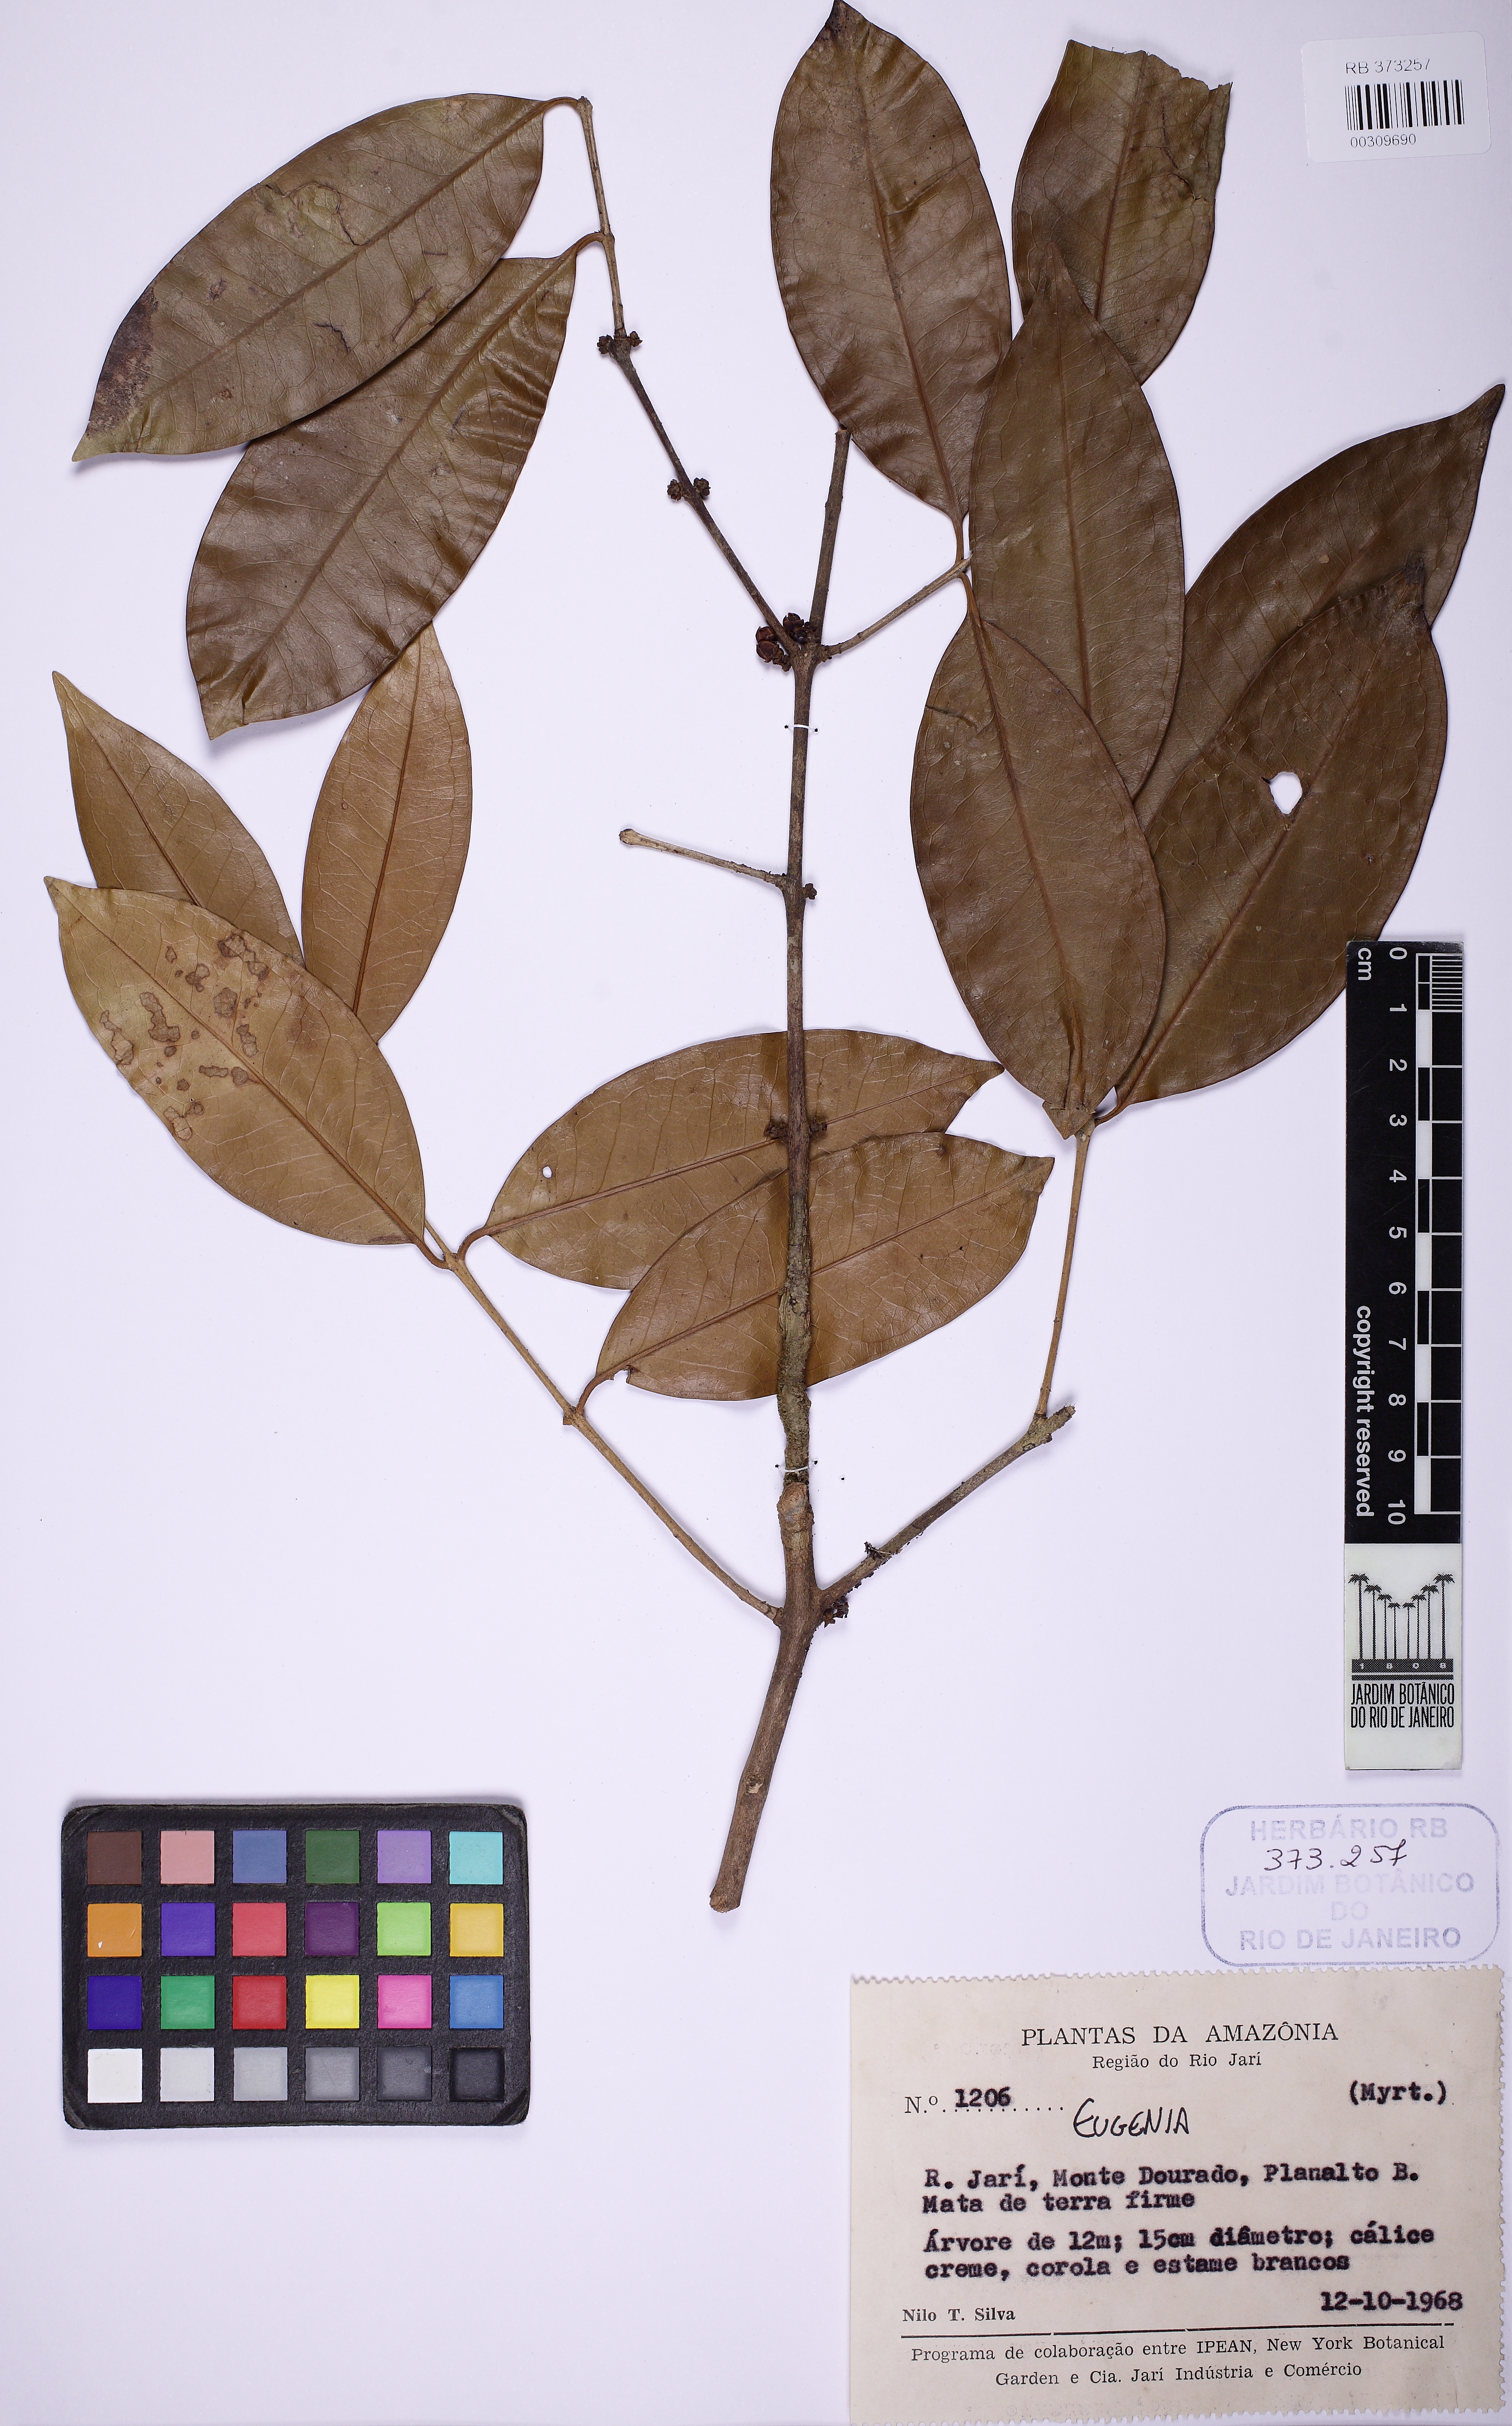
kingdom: Plantae
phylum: Tracheophyta
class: Magnoliopsida
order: Myrtales
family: Myrtaceae
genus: Eugenia
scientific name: Eugenia
